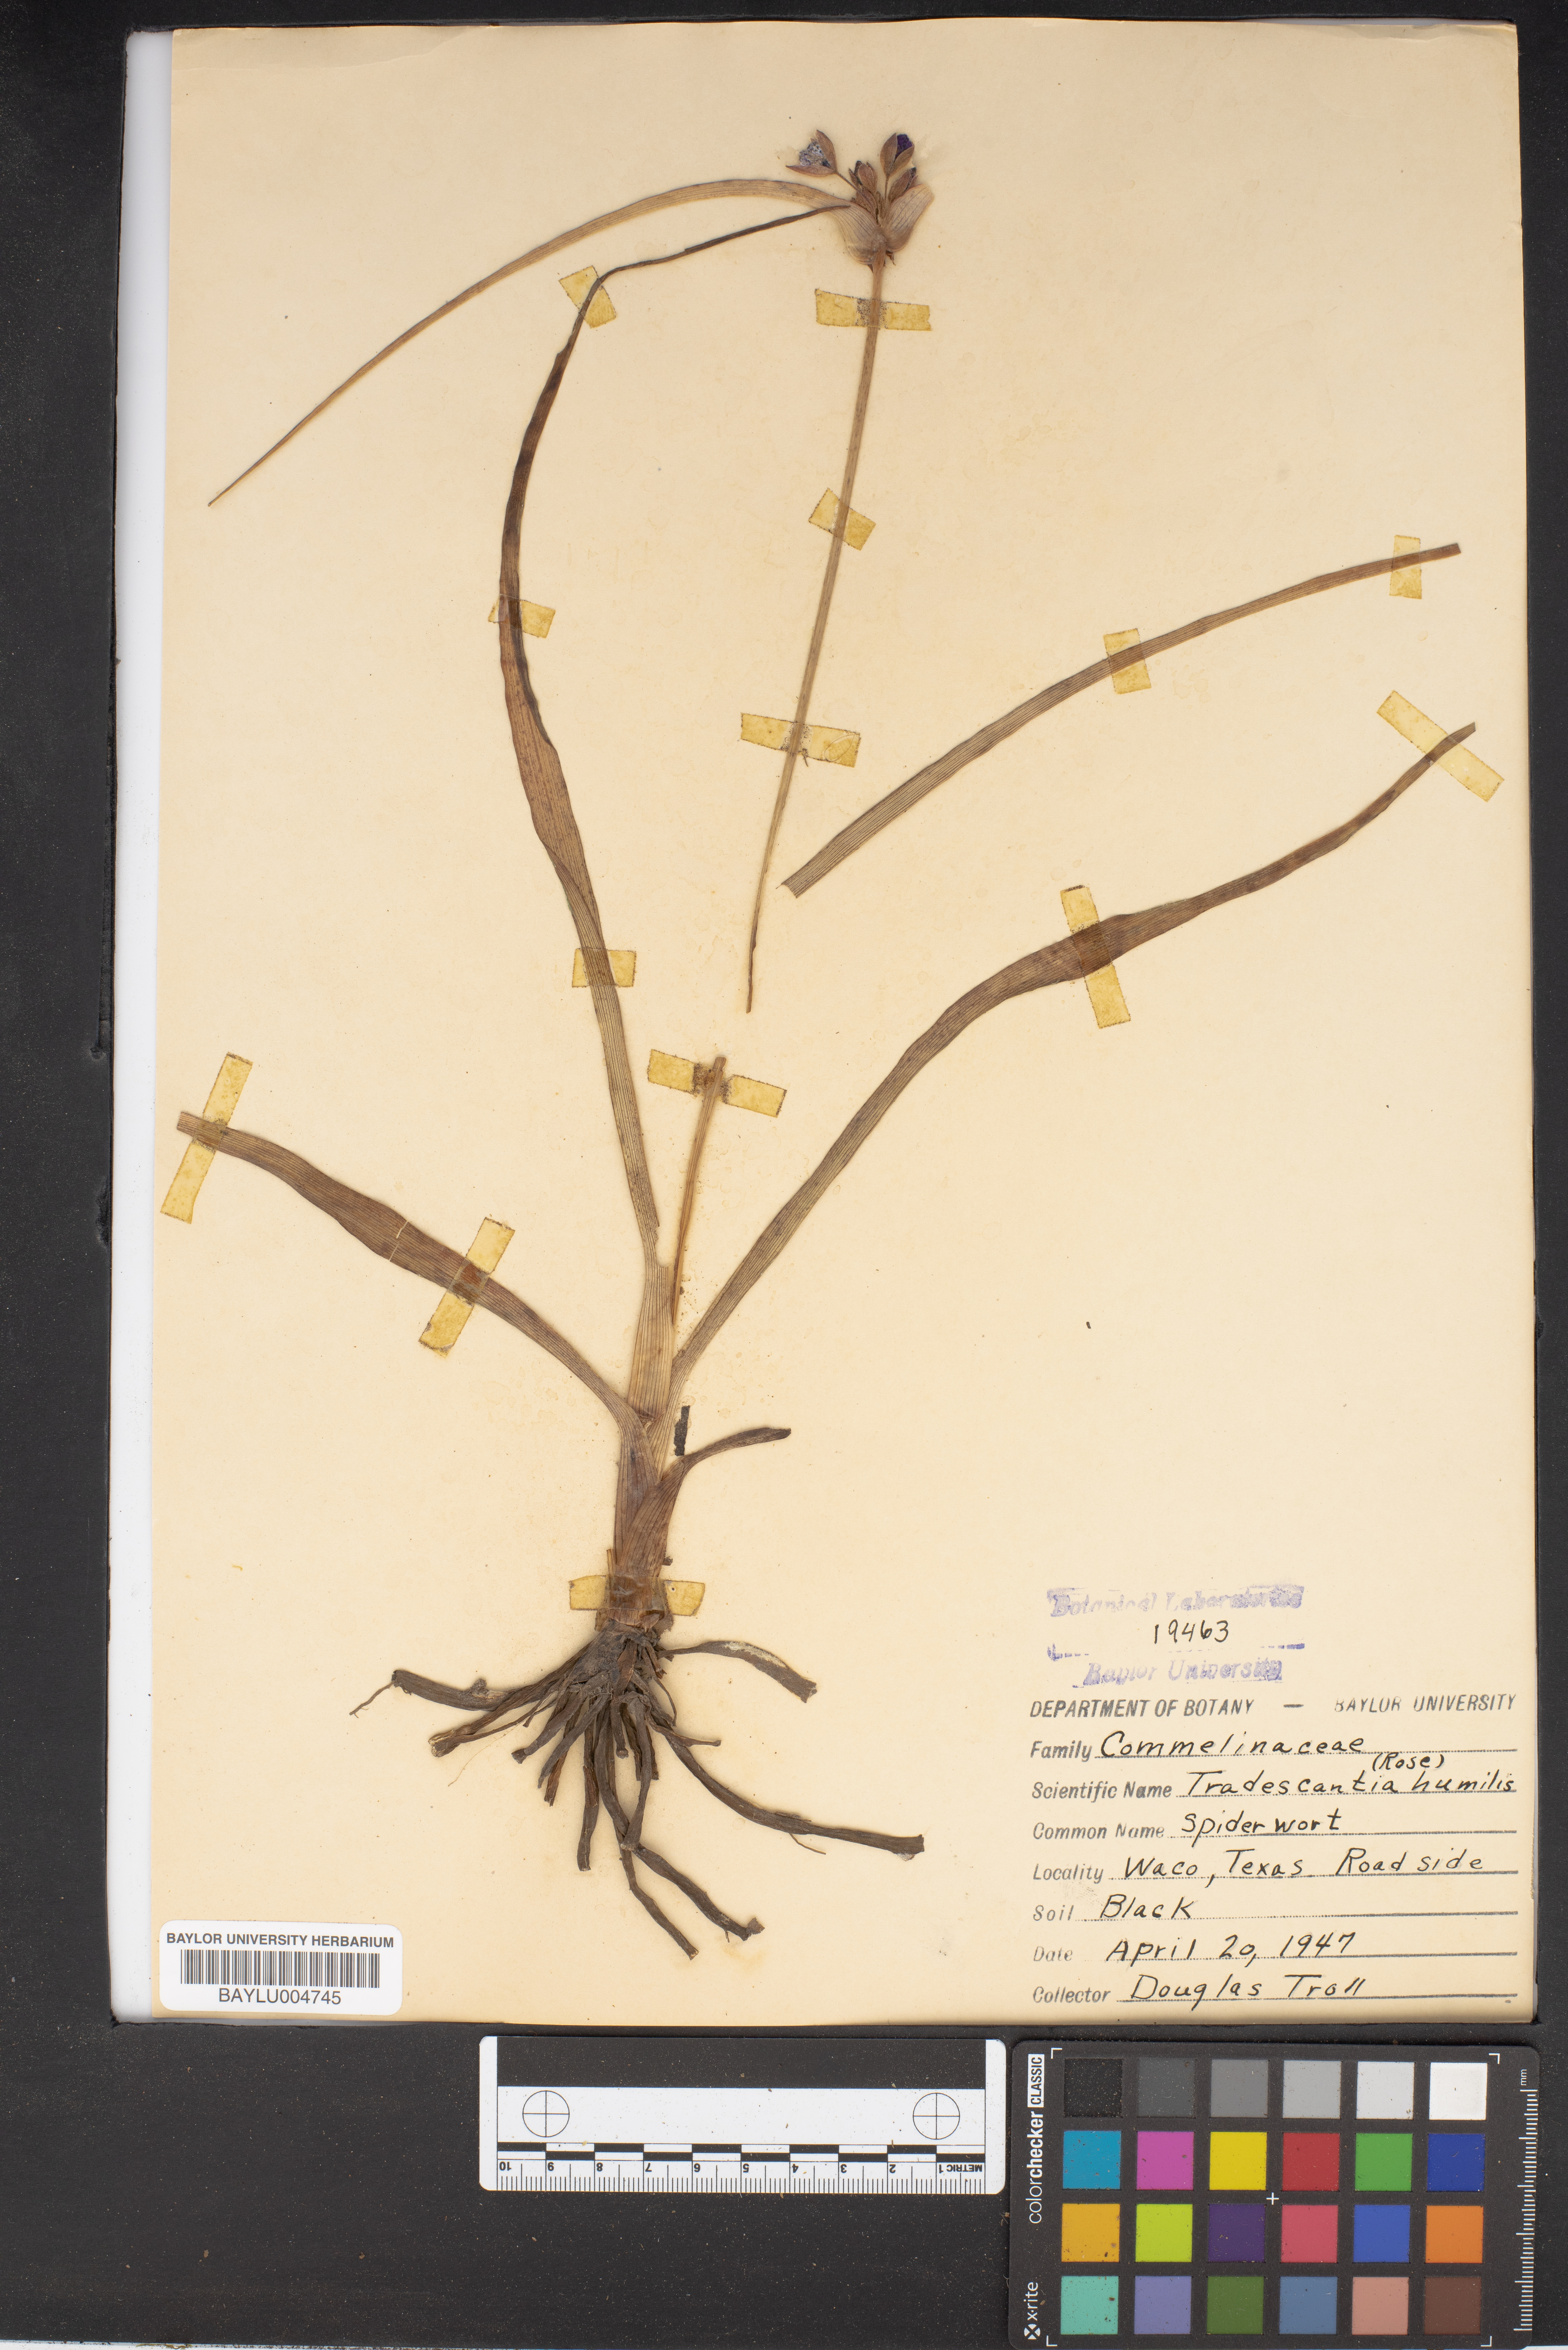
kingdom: Plantae
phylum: Tracheophyta
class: Liliopsida
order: Commelinales
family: Commelinaceae
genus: Tradescantia
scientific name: Tradescantia humilis
